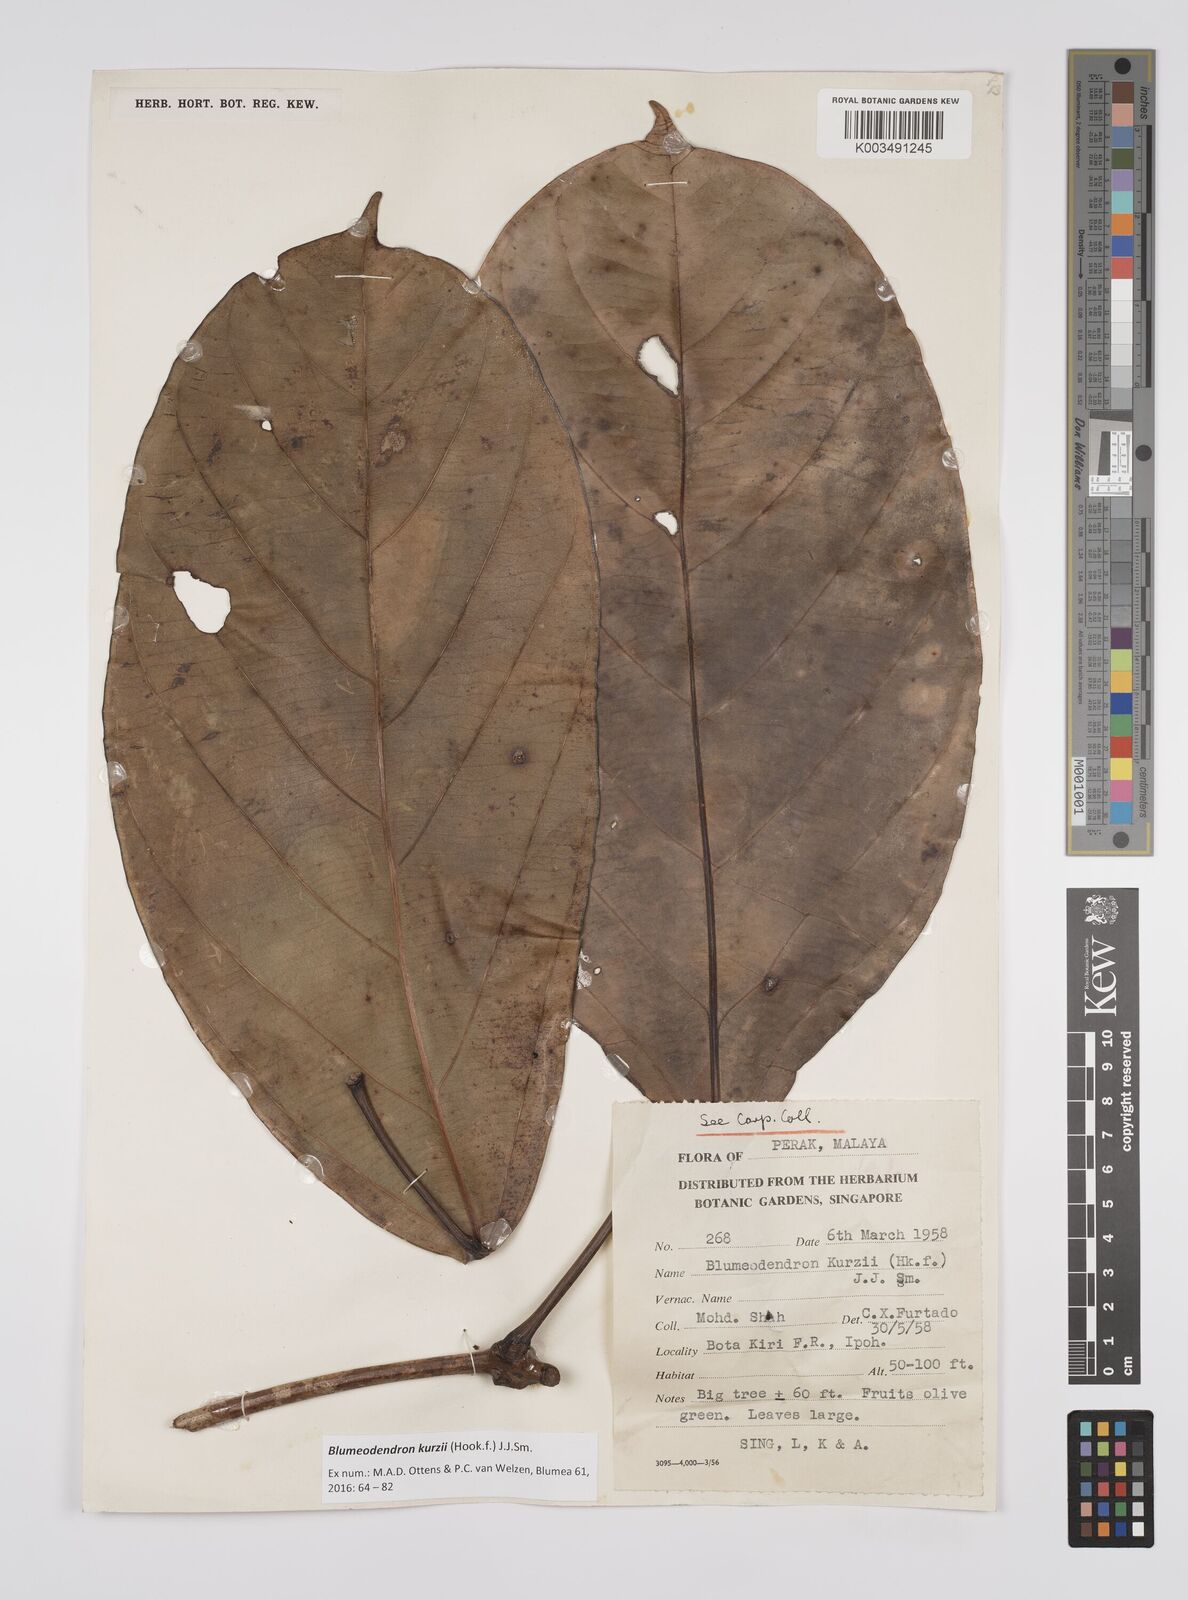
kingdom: Plantae
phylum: Tracheophyta
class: Magnoliopsida
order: Malpighiales
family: Euphorbiaceae
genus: Blumeodendron
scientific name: Blumeodendron kurzii
